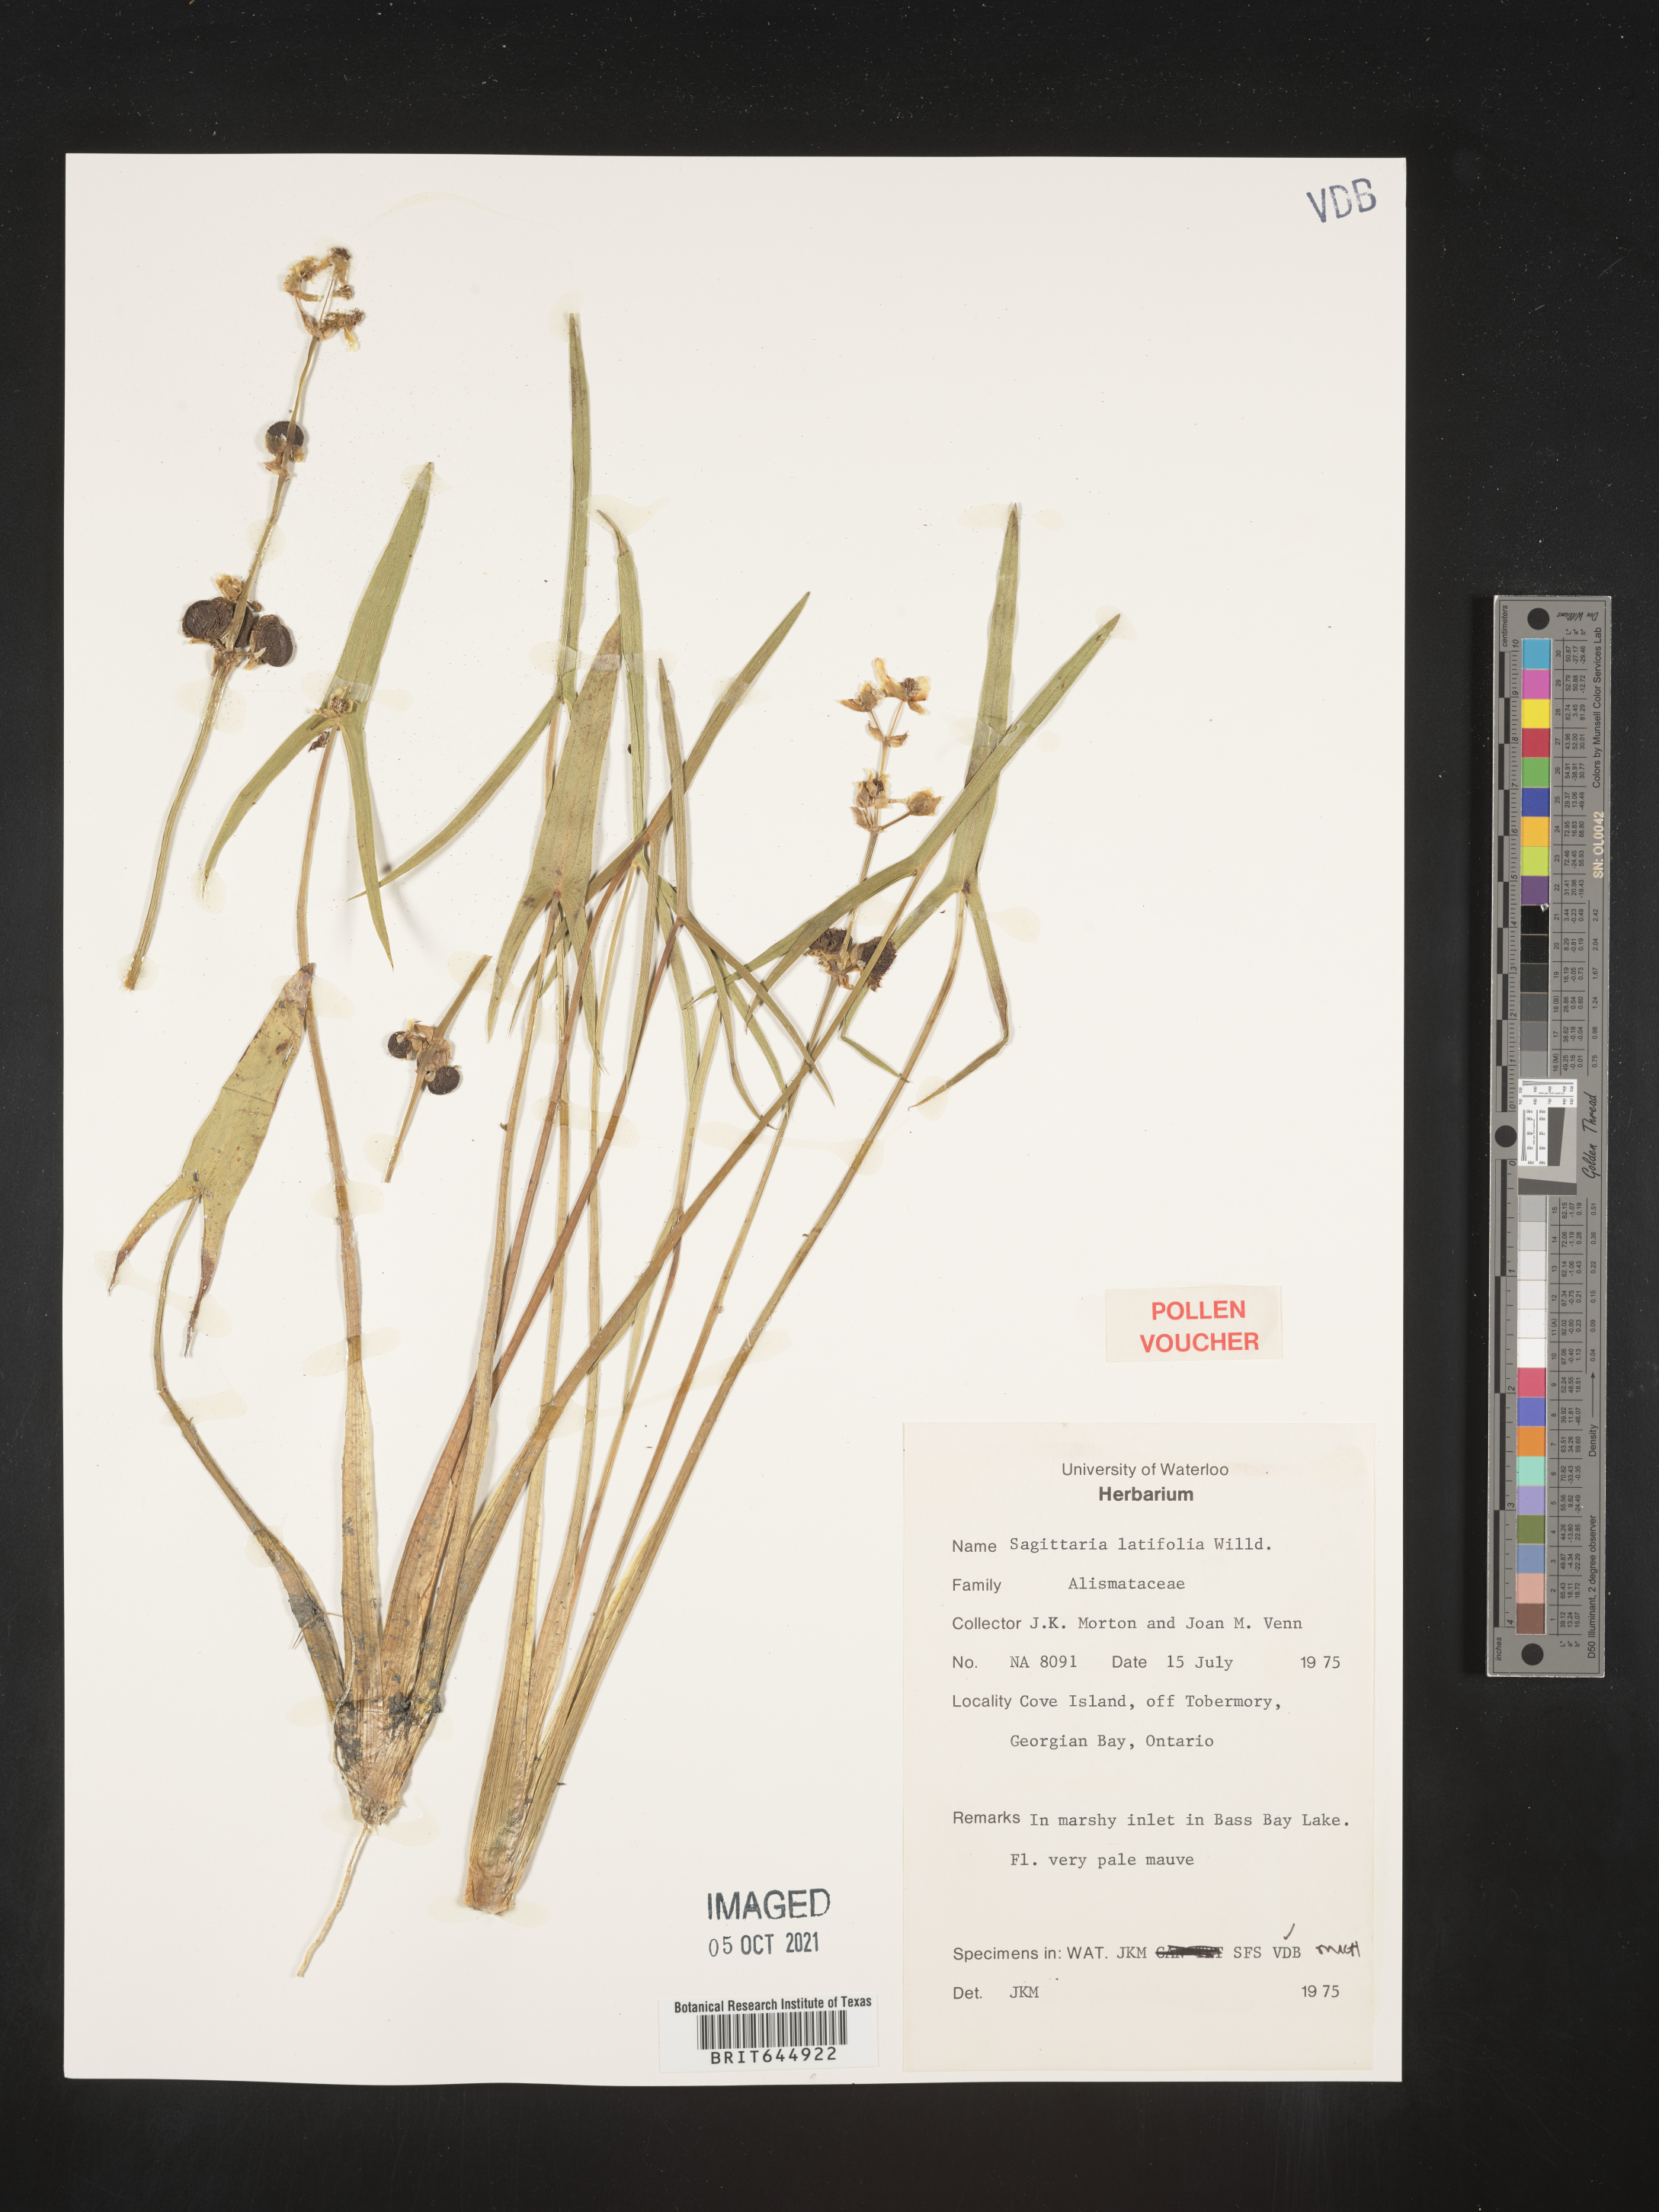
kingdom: Plantae
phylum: Tracheophyta
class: Liliopsida
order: Alismatales
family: Alismataceae
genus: Sagittaria
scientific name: Sagittaria latifolia
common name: Duck-potato
